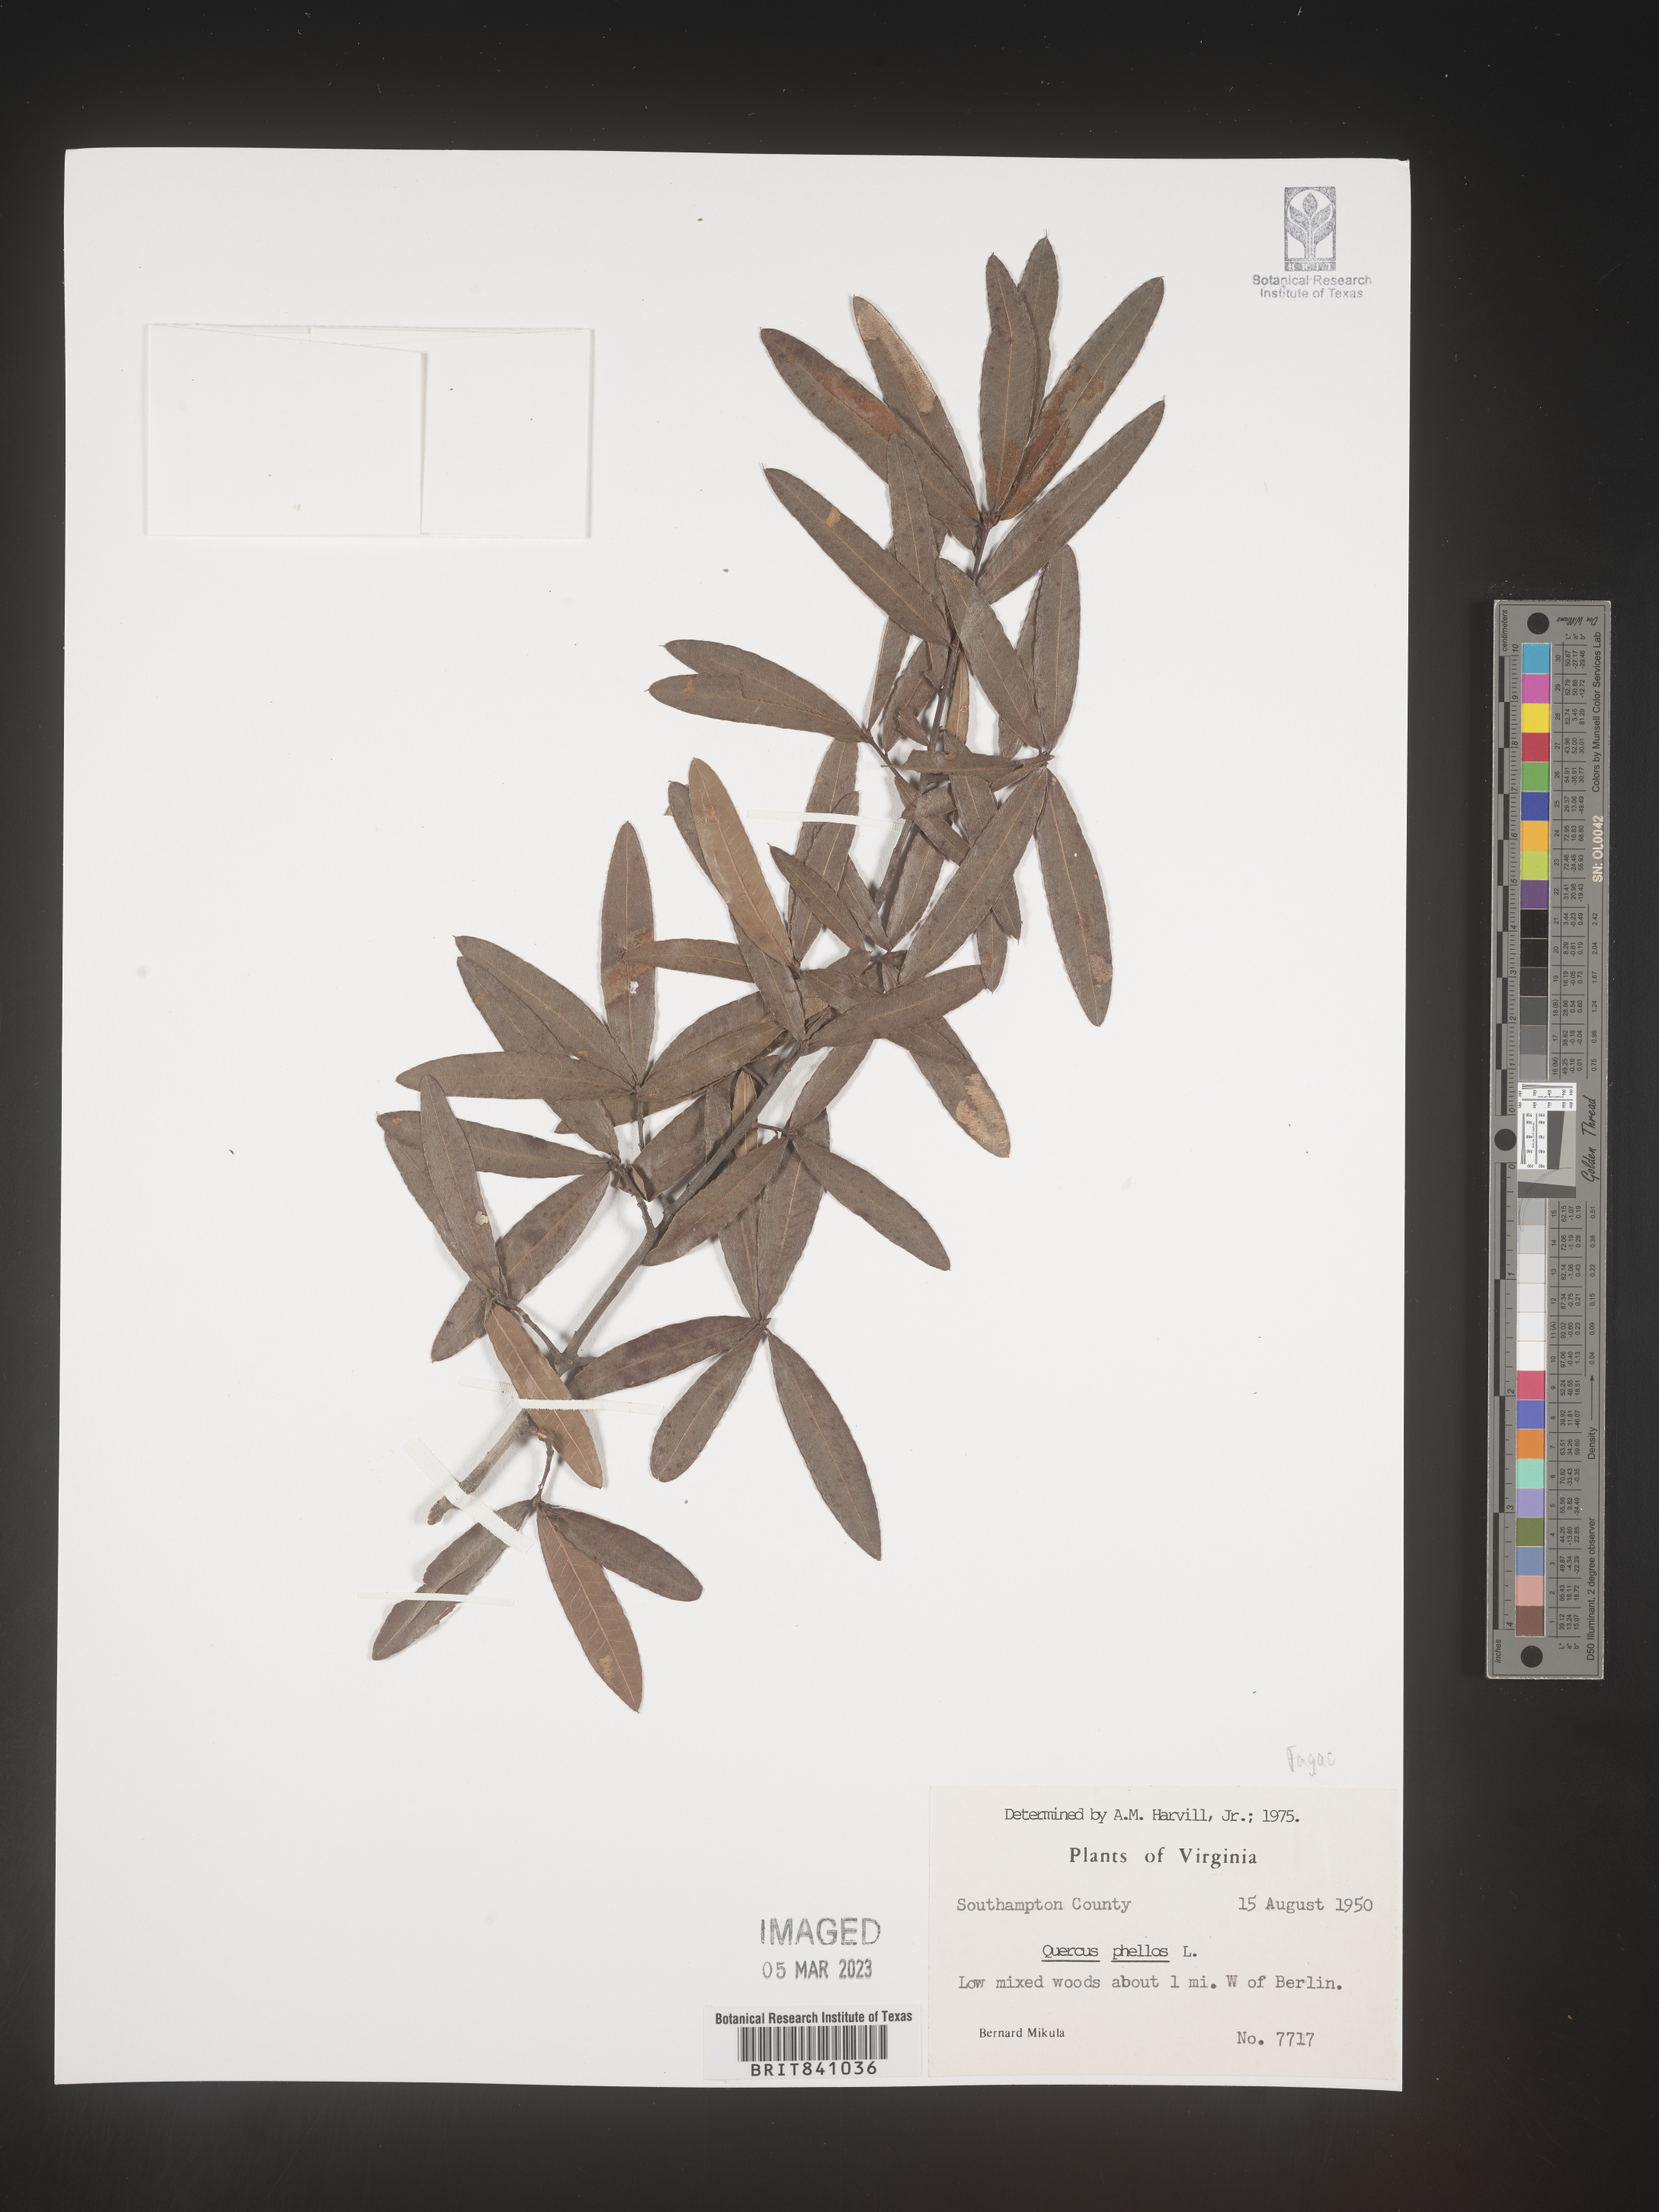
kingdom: Plantae
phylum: Tracheophyta
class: Magnoliopsida
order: Fagales
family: Fagaceae
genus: Quercus
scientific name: Quercus phellos
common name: Willow oak
